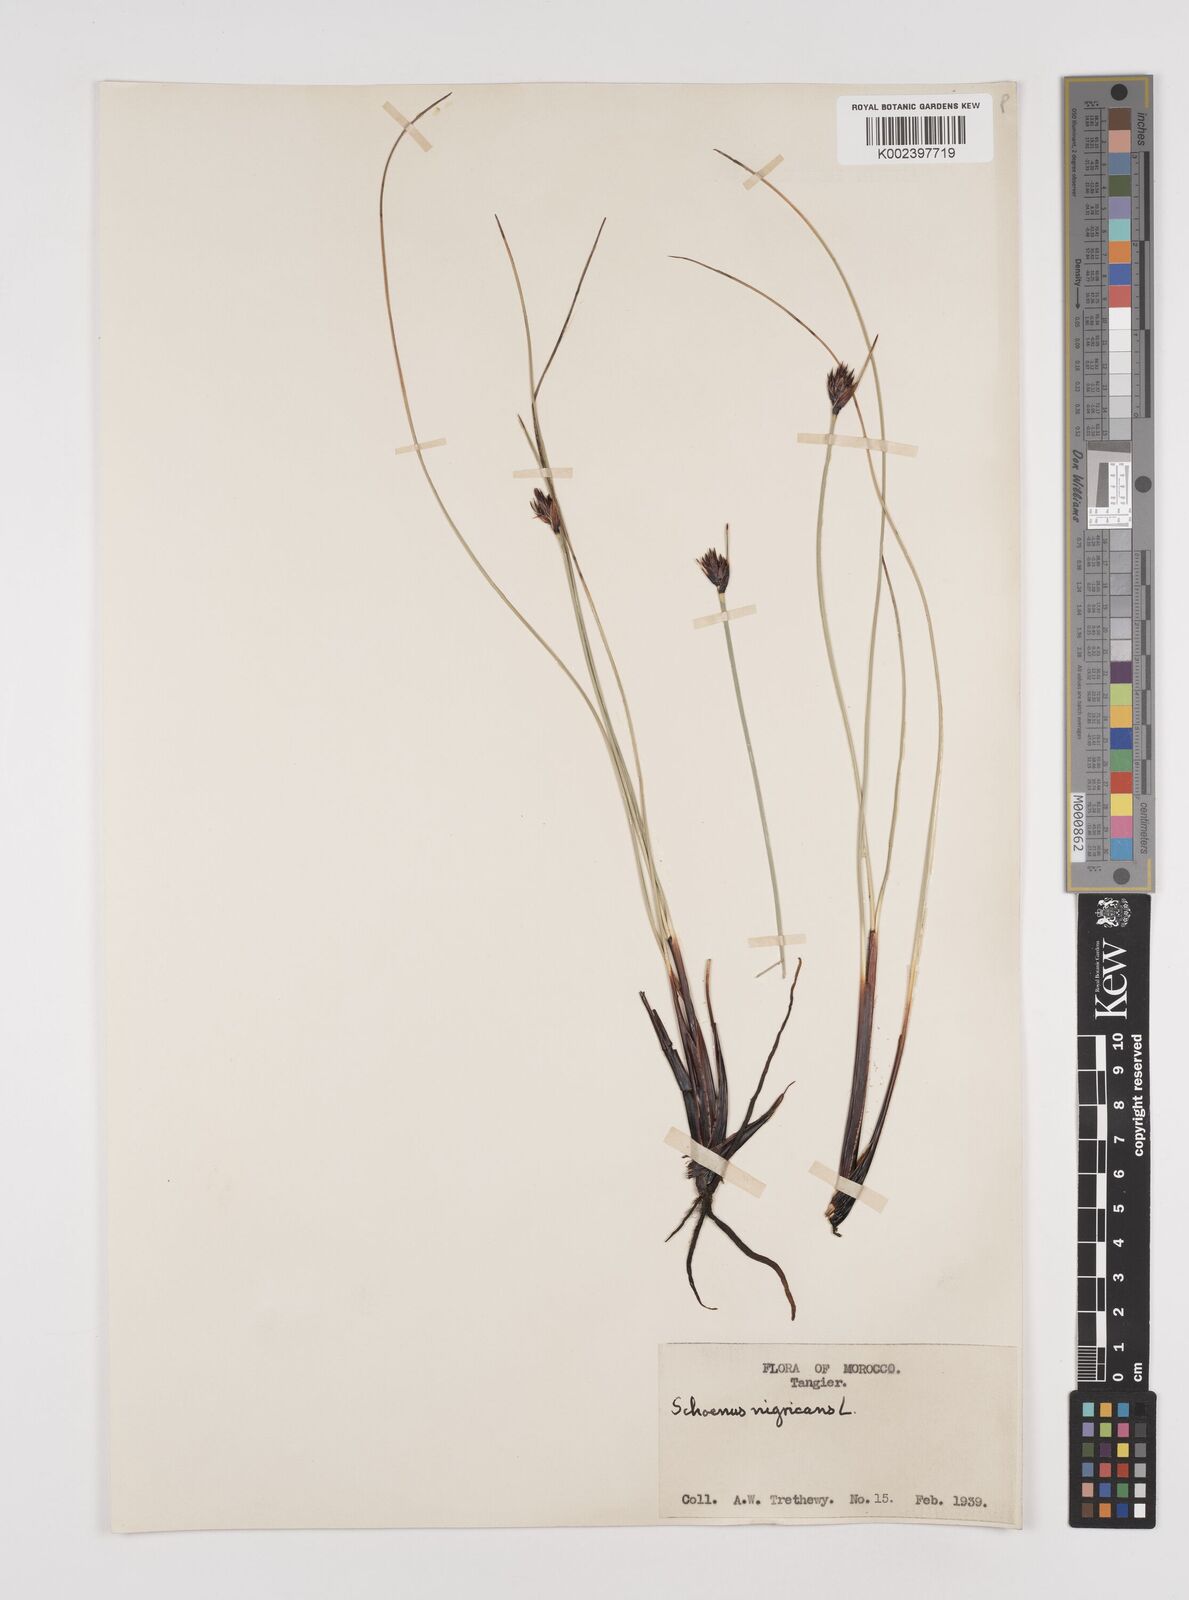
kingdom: Plantae
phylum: Tracheophyta
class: Liliopsida
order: Poales
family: Cyperaceae
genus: Schoenus
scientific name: Schoenus nigricans
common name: Black bog-rush
